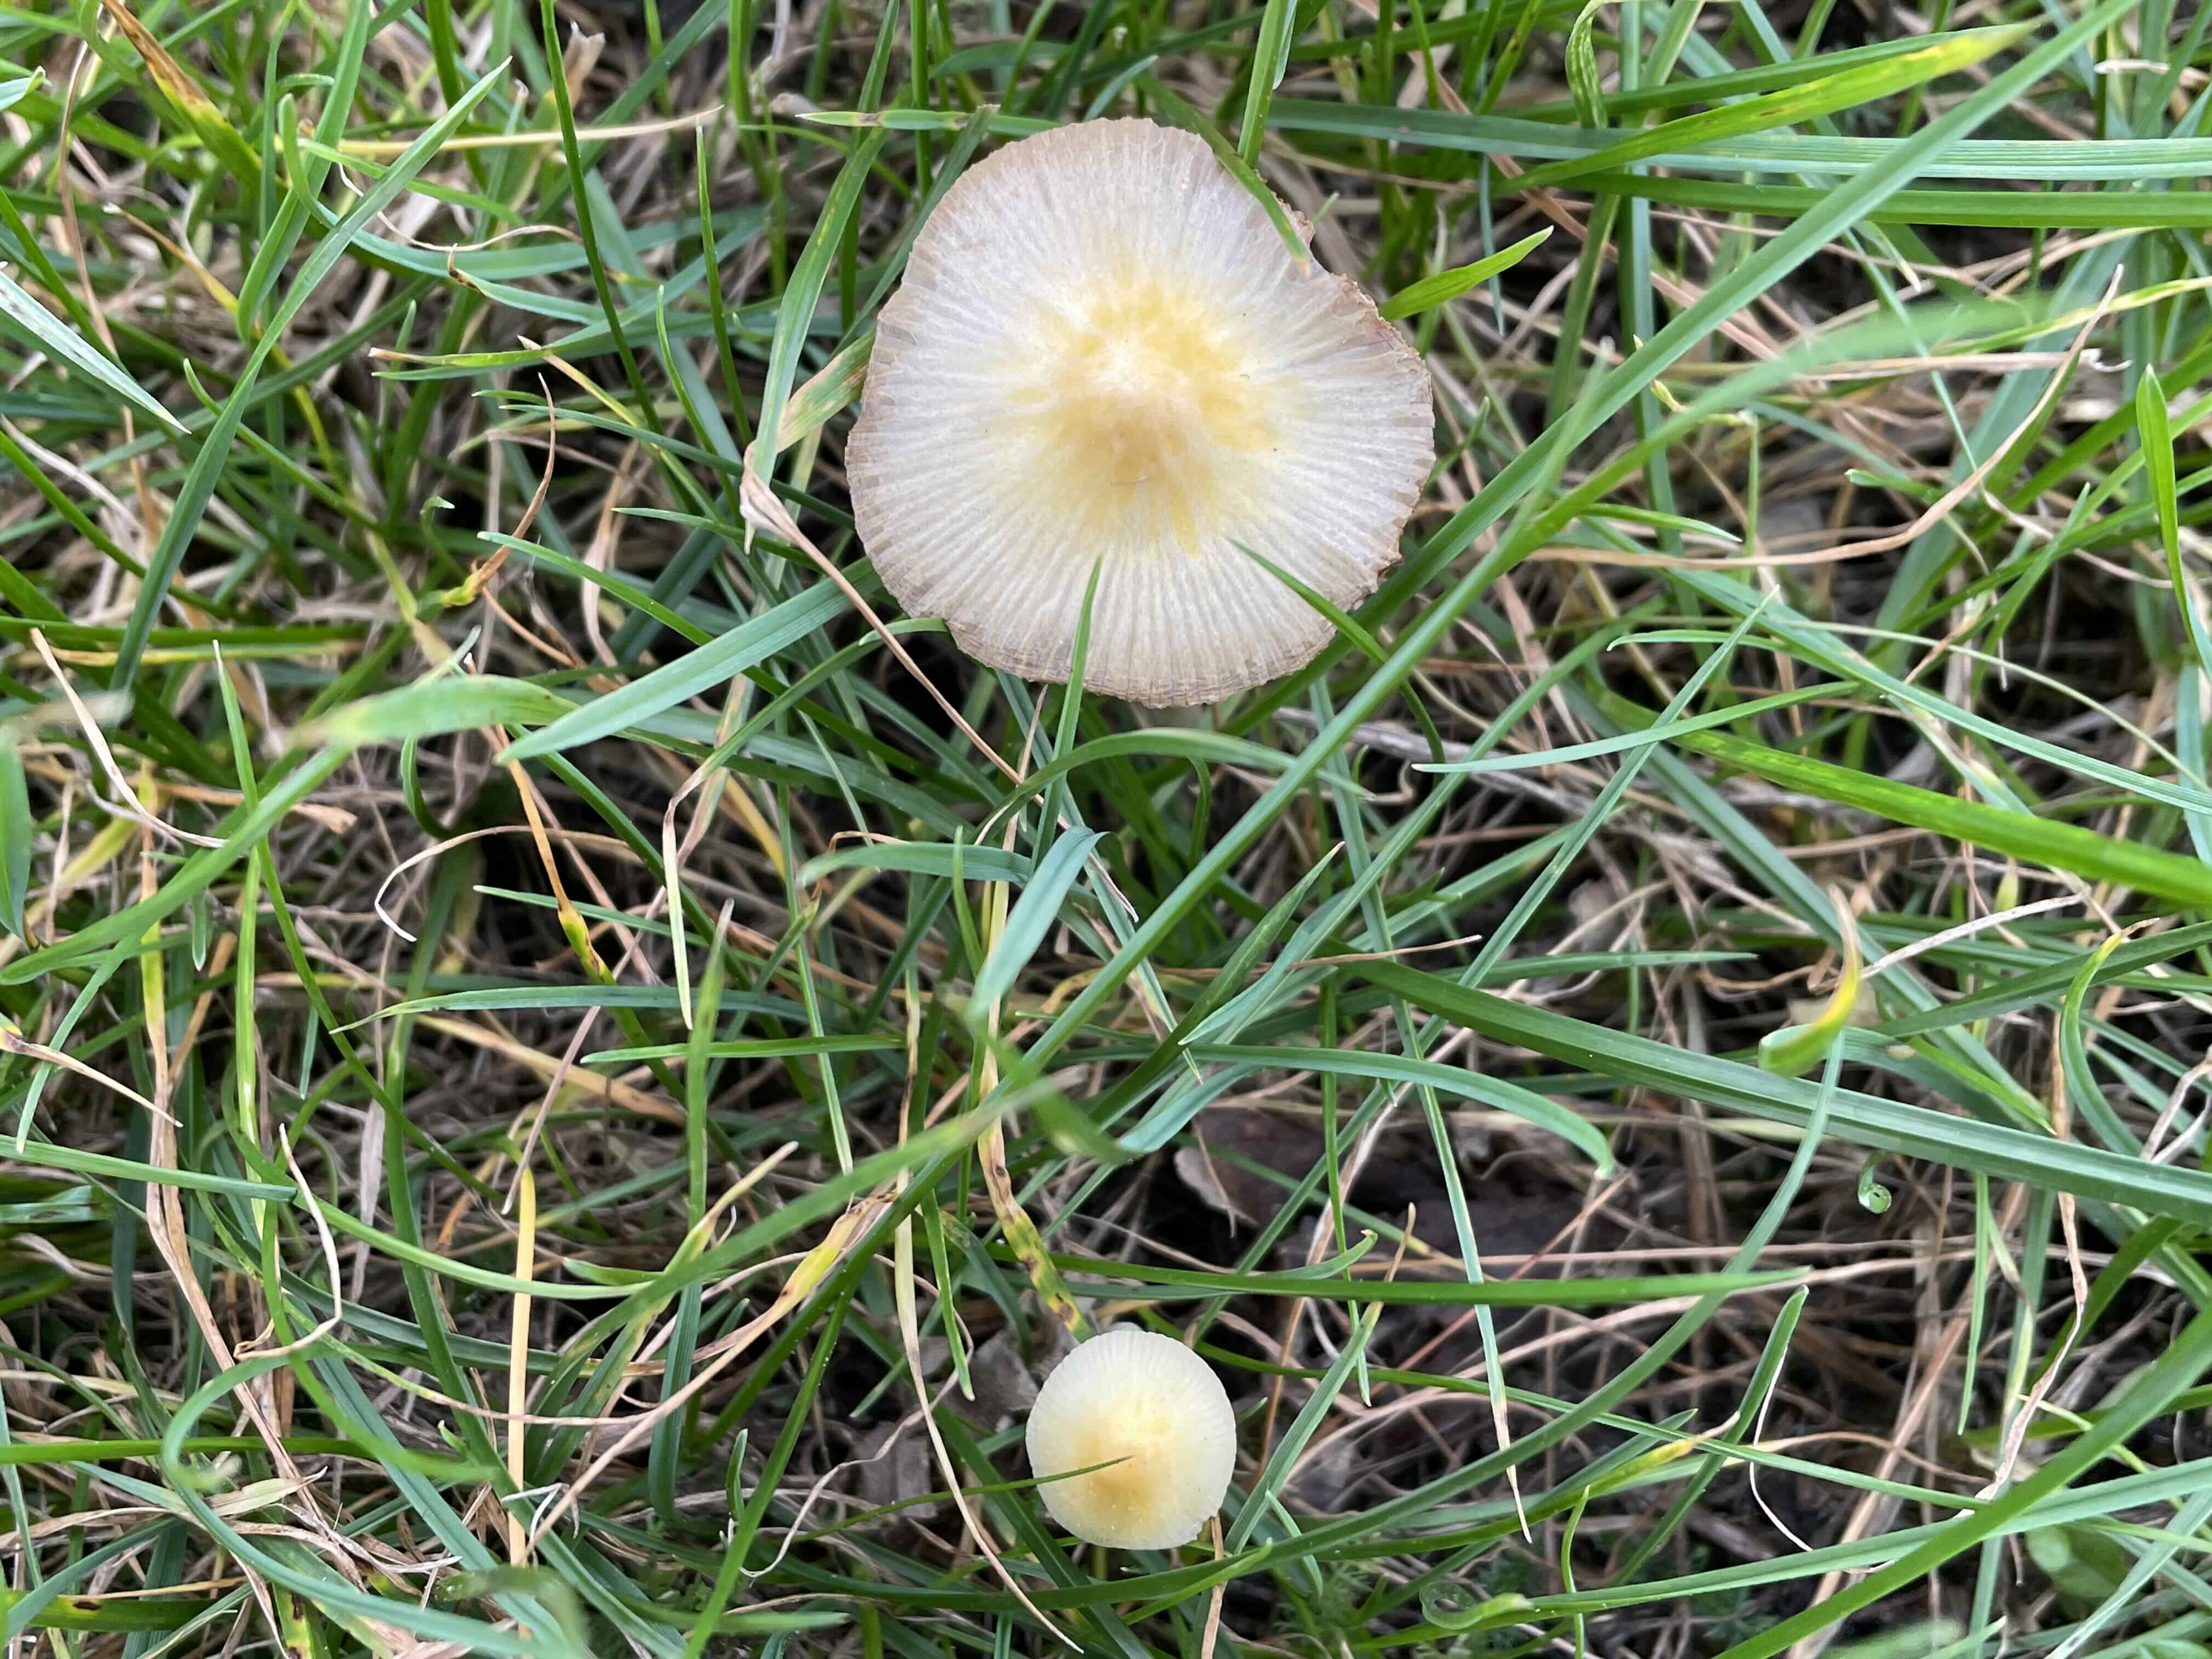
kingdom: Fungi
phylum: Basidiomycota
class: Agaricomycetes
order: Agaricales
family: Bolbitiaceae
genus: Bolbitius
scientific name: Bolbitius titubans
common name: almindelig gulhat
